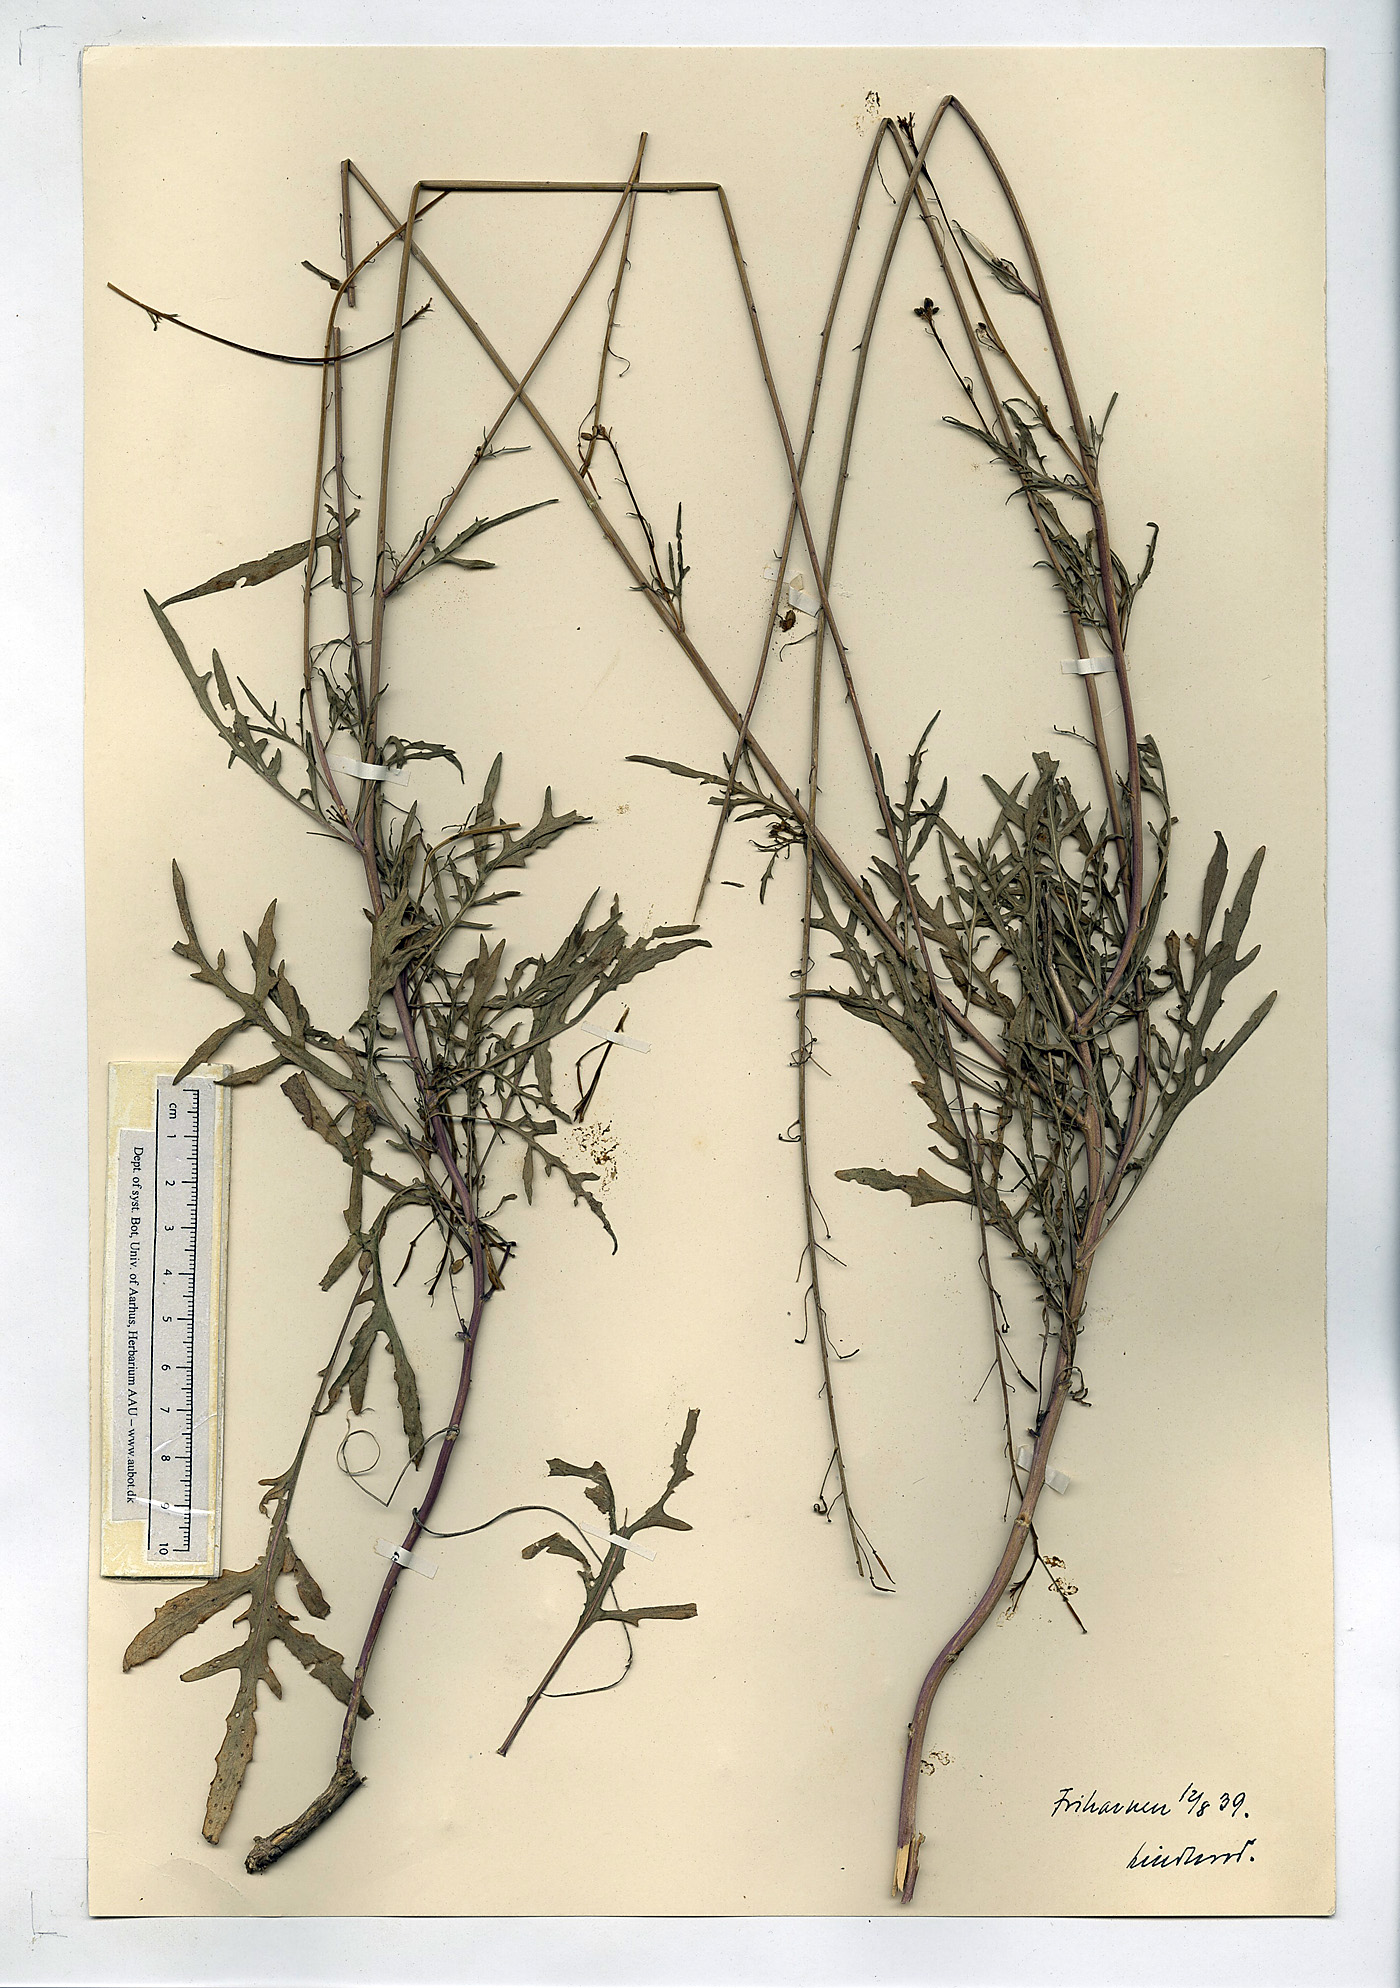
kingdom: Plantae
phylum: Tracheophyta
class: Magnoliopsida
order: Brassicales
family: Brassicaceae
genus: Diplotaxis
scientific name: Diplotaxis tenuifolia
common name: Perennial wall-rocket
